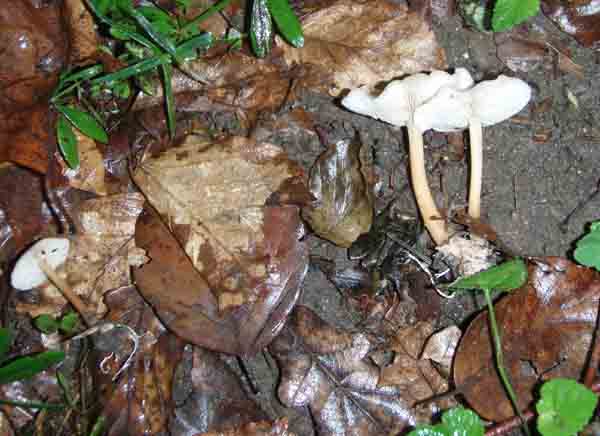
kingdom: Fungi
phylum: Basidiomycota
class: Agaricomycetes
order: Agaricales
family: Omphalotaceae
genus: Gymnopus
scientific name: Gymnopus dryophilus
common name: løv-fladhat
